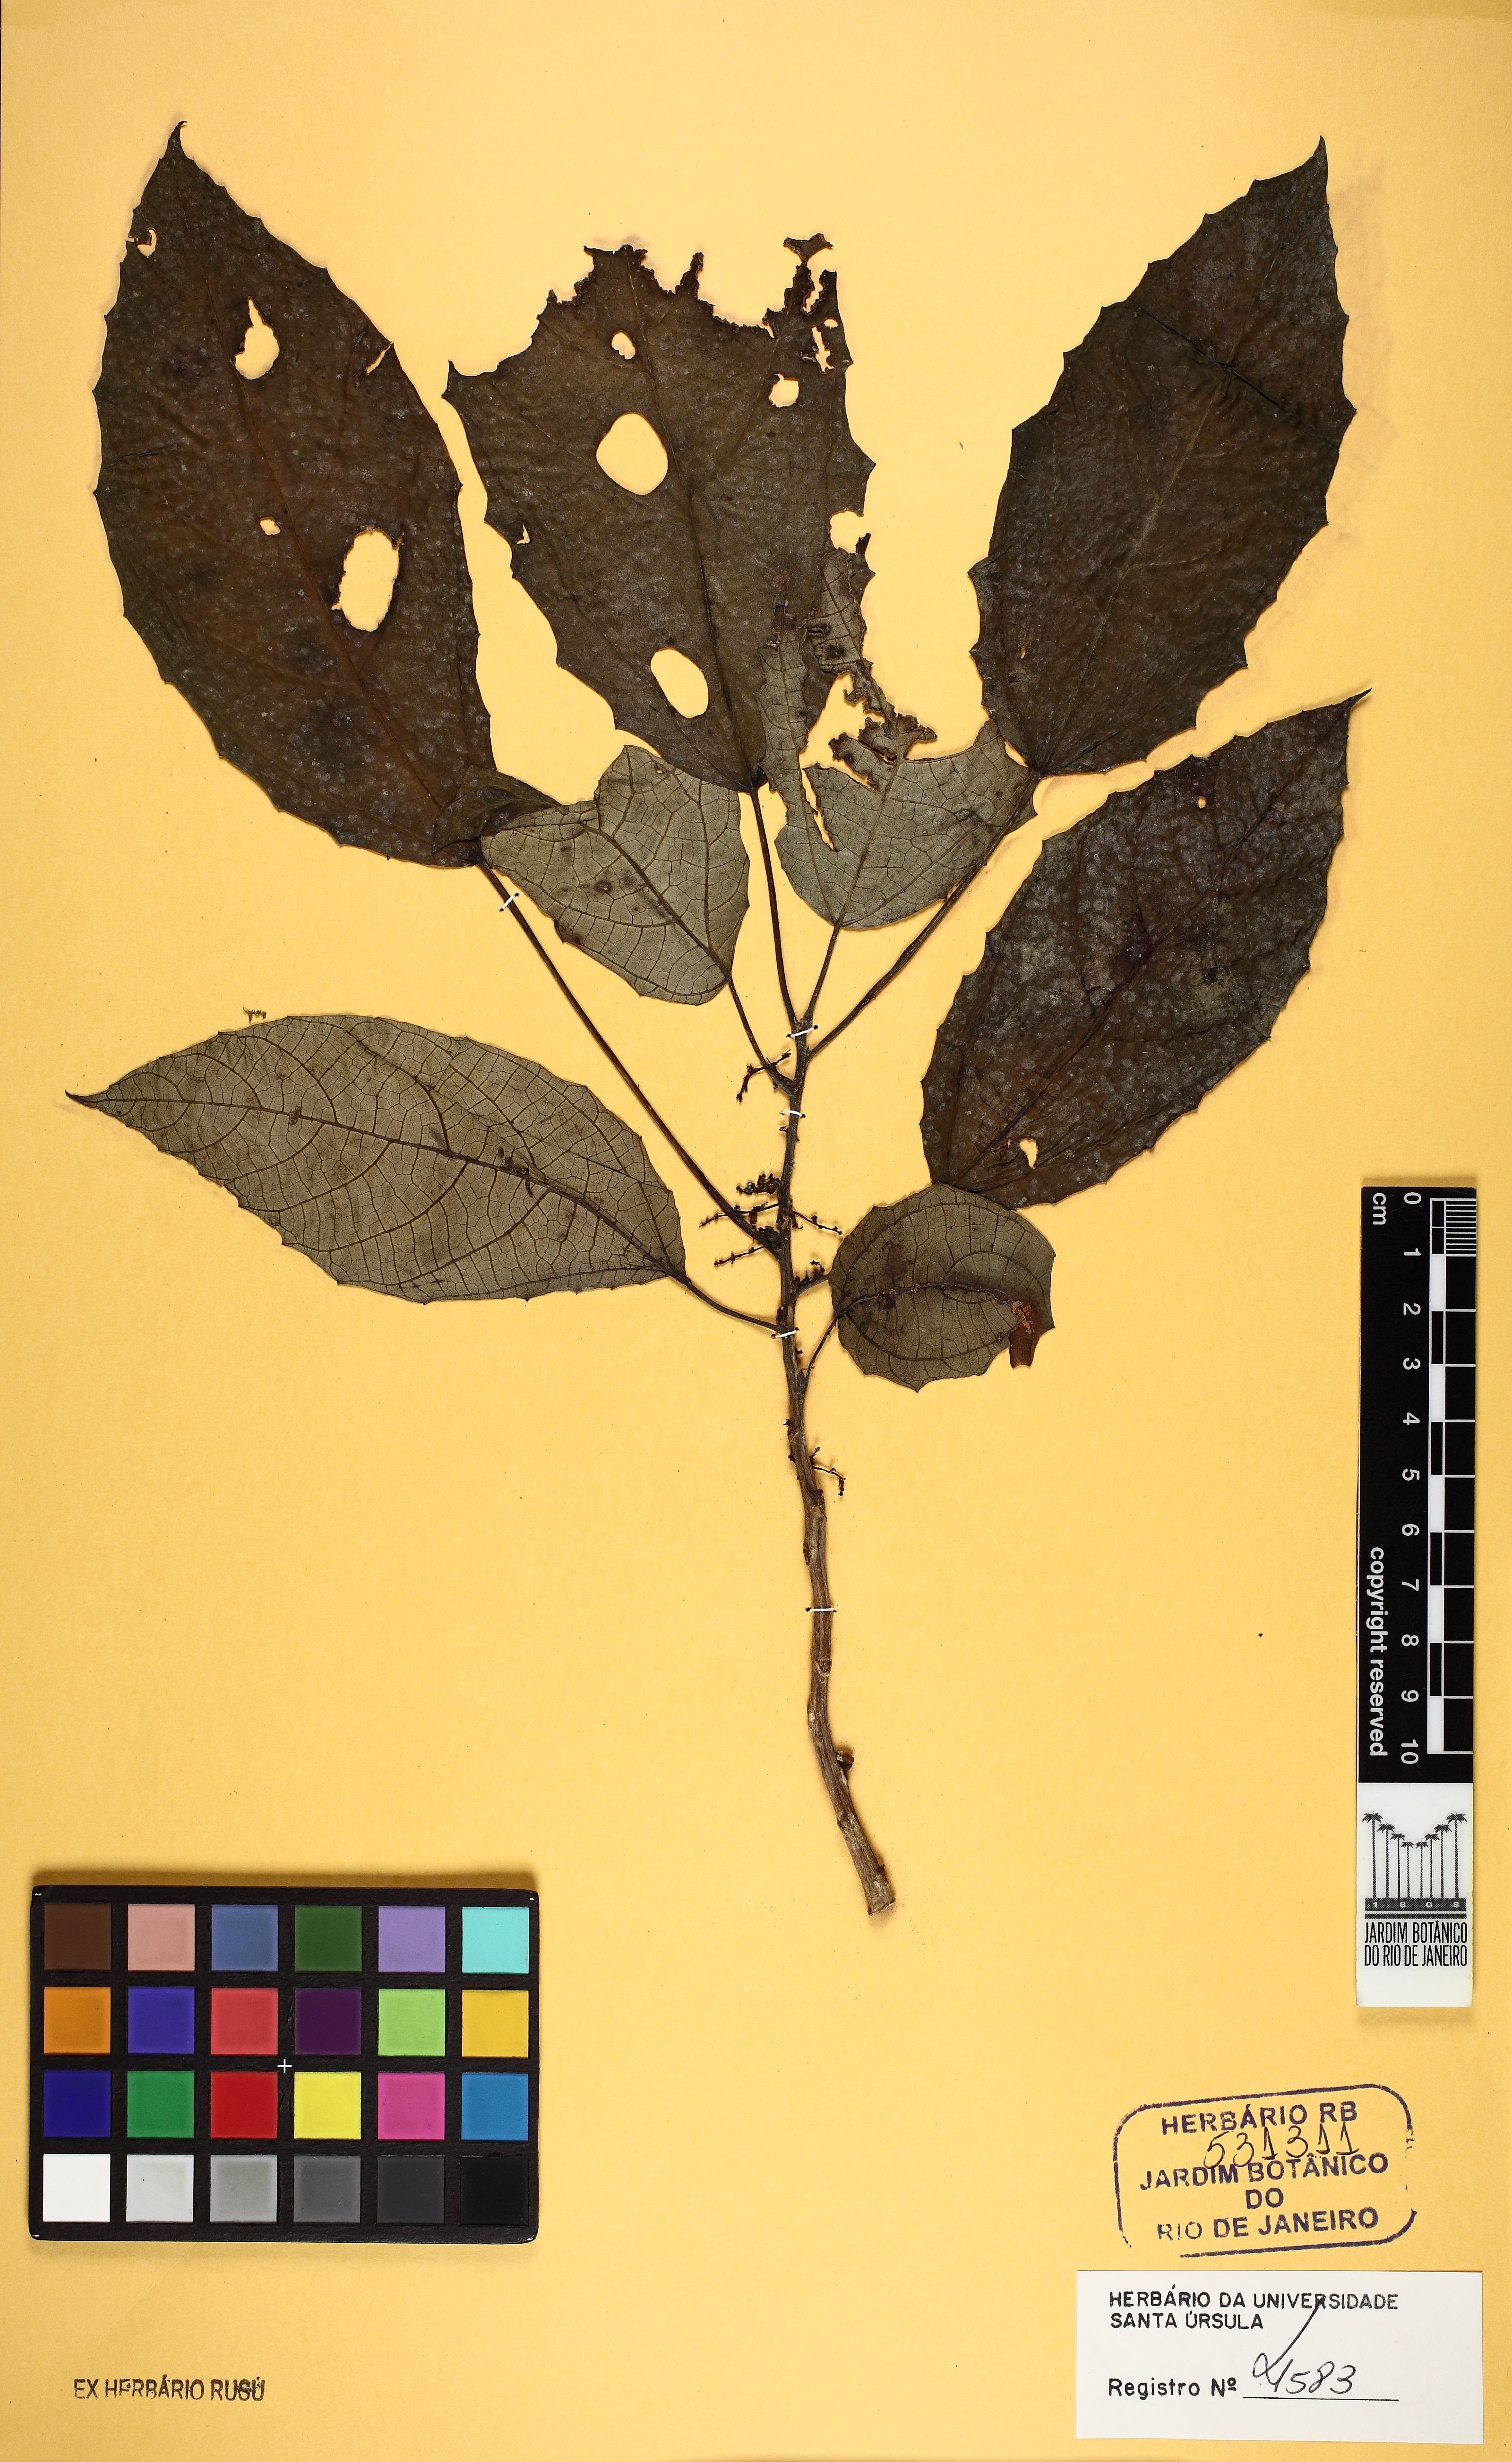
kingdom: Plantae
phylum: Tracheophyta
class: Magnoliopsida
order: Rosales
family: Urticaceae
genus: Urera
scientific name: Urera nitida
